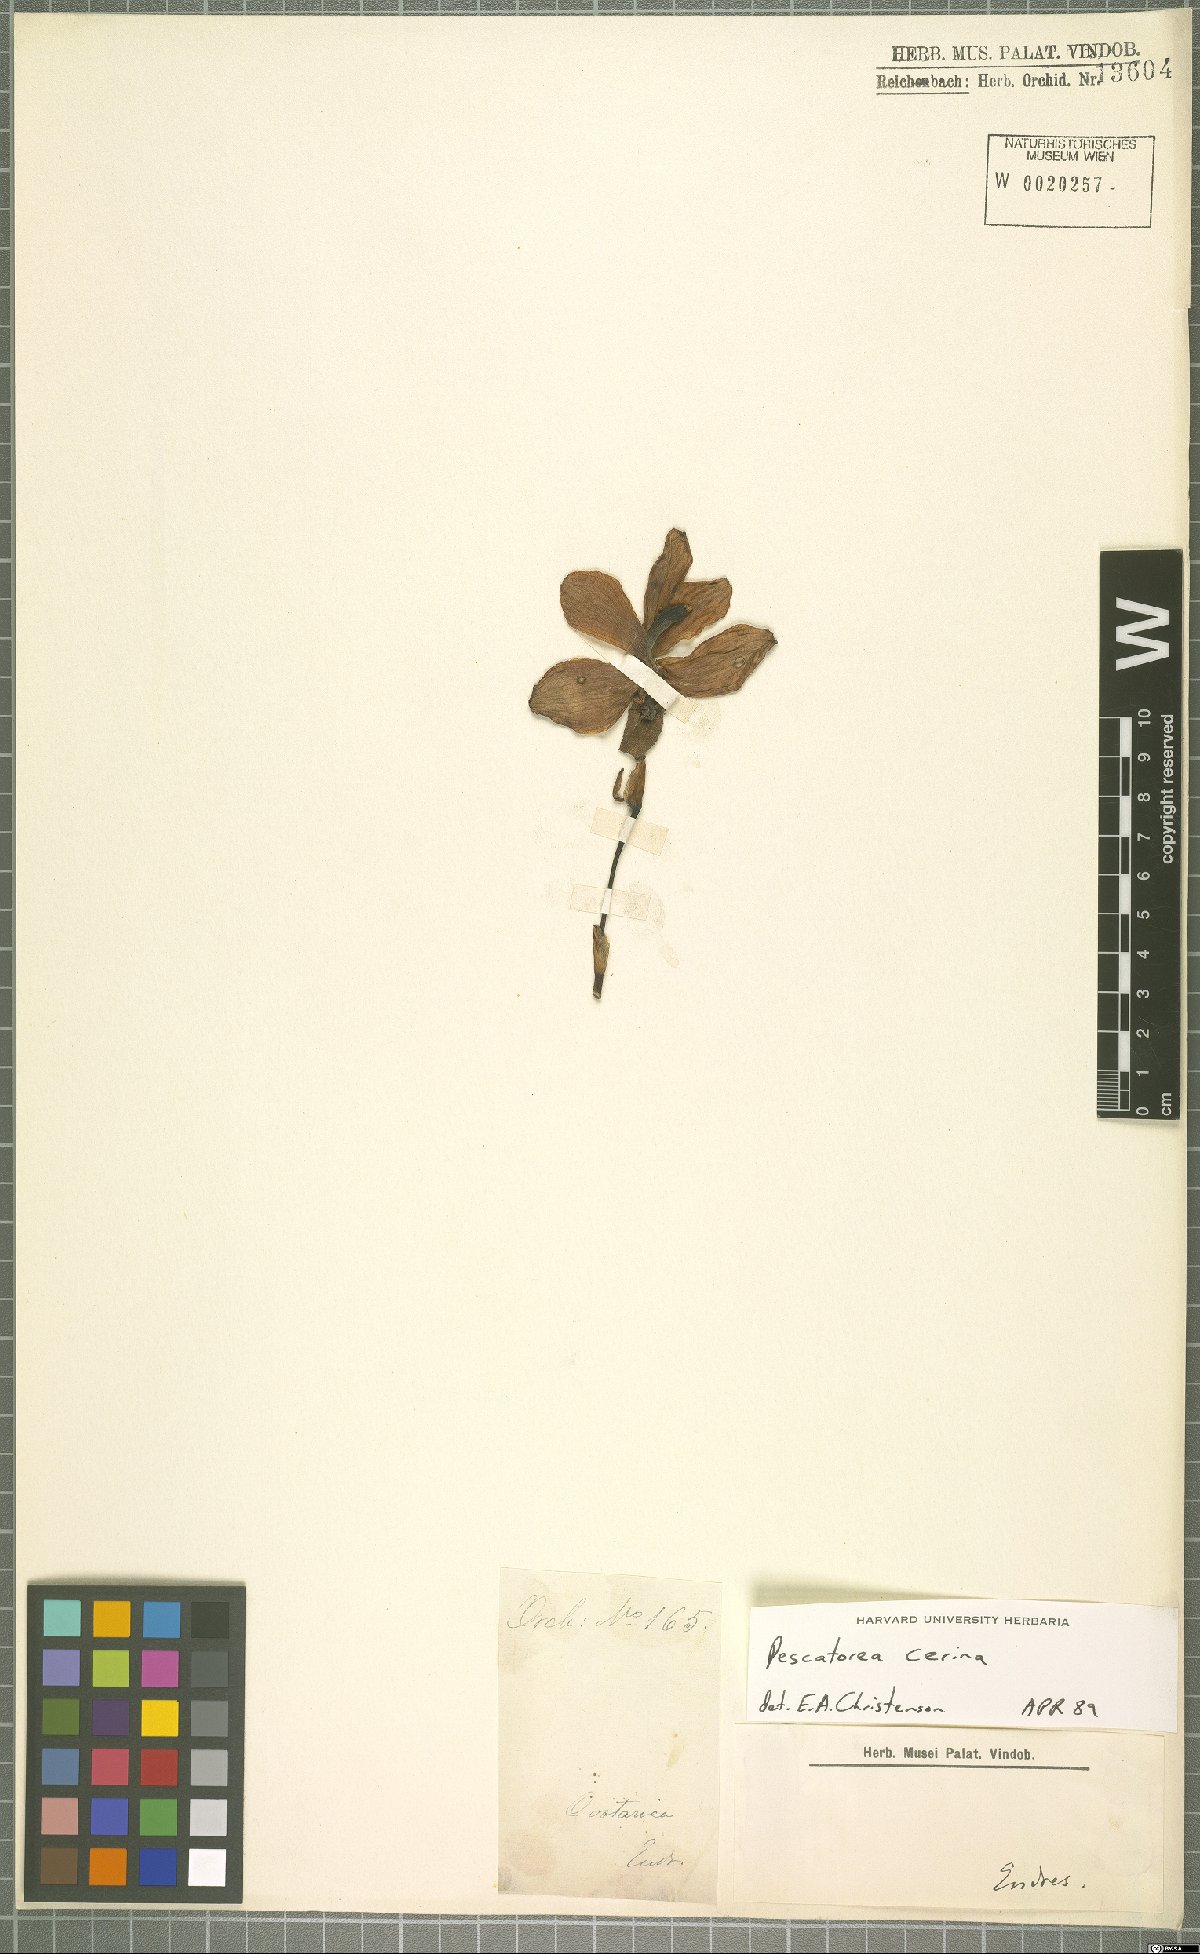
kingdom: Plantae
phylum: Tracheophyta
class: Liliopsida
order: Asparagales
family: Orchidaceae
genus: Pescatoria
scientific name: Pescatoria cerina
